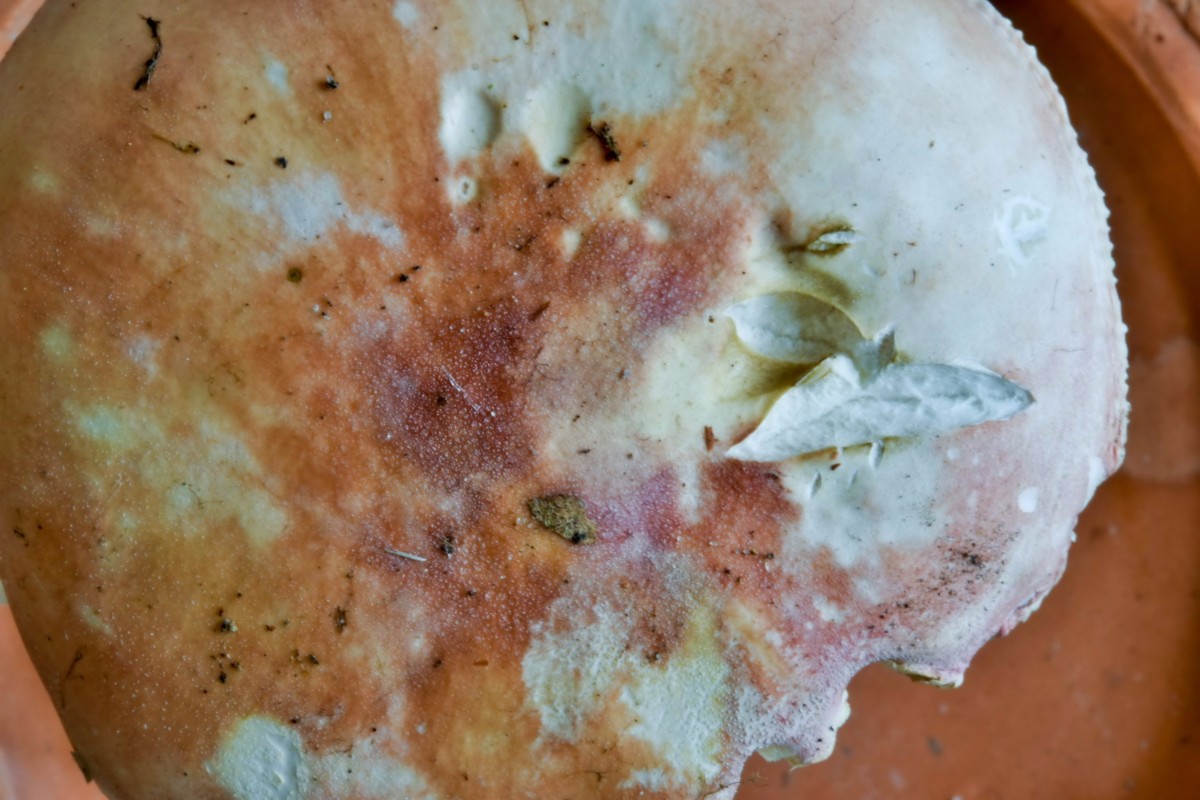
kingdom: Fungi
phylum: Basidiomycota
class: Agaricomycetes
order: Russulales
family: Russulaceae
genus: Russula
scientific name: Russula
